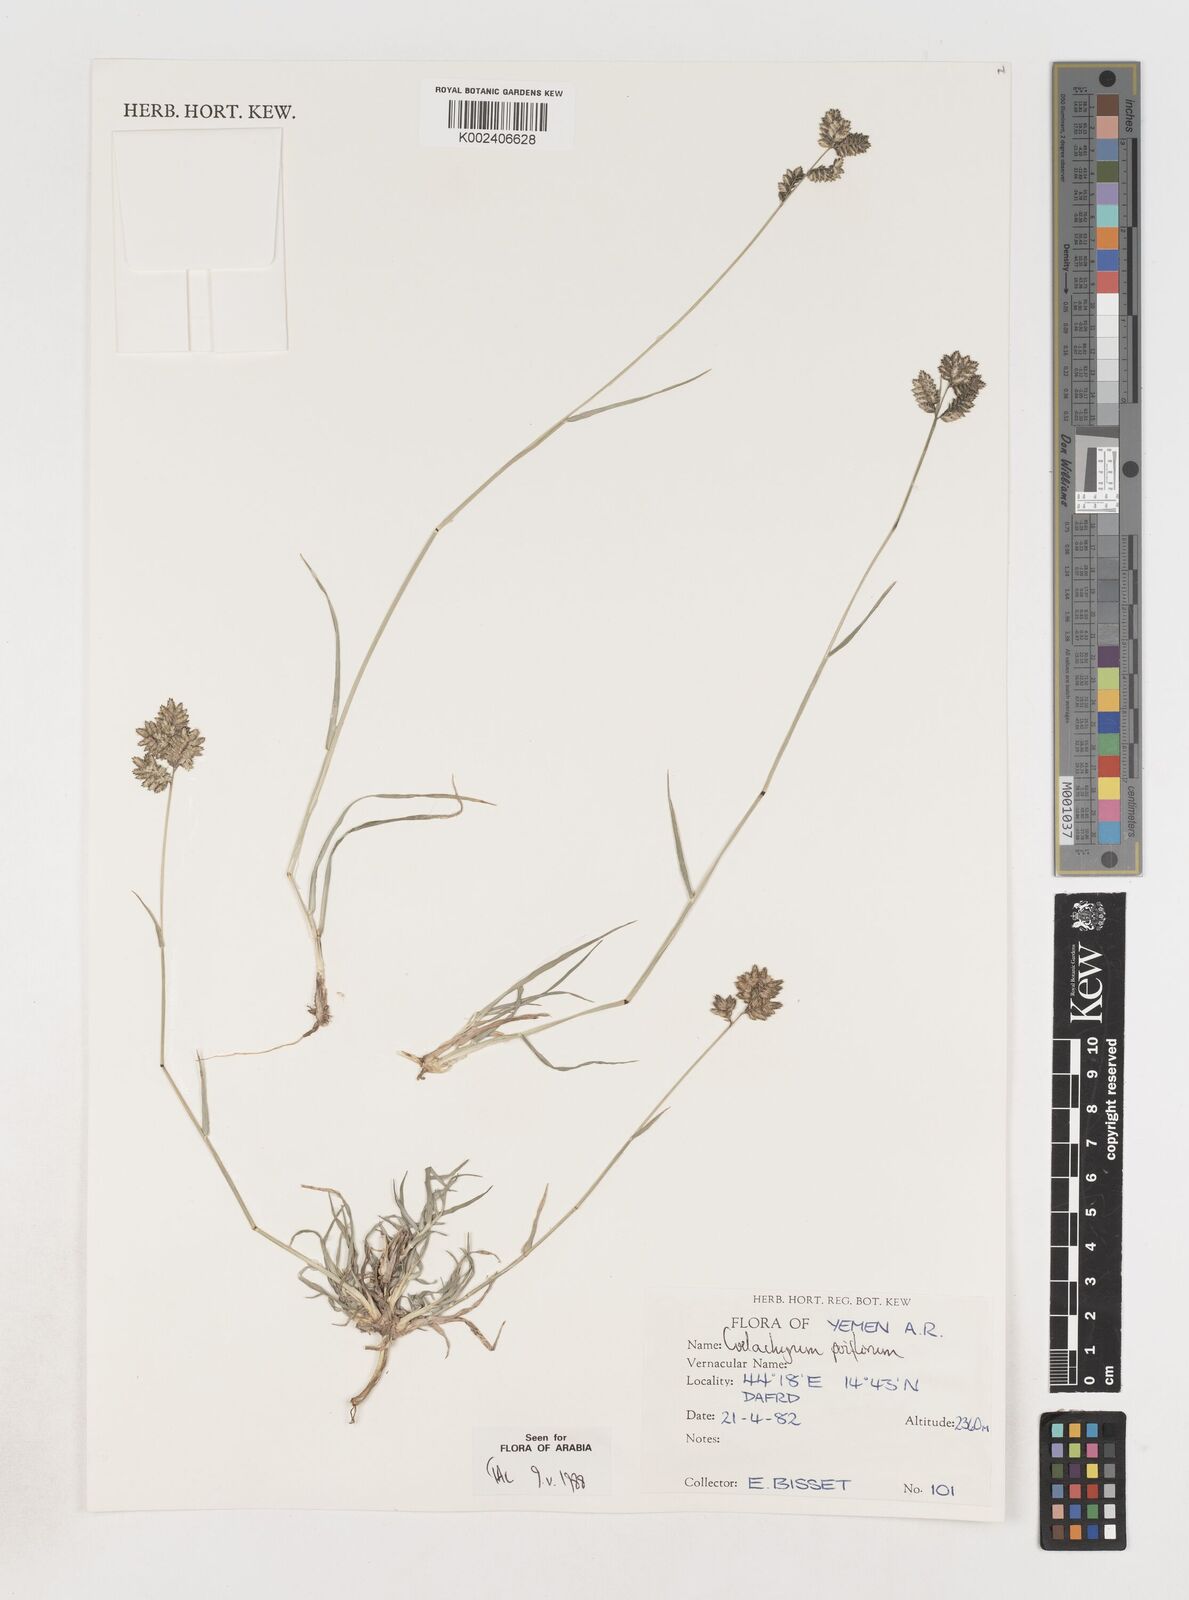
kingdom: Plantae
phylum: Tracheophyta
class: Liliopsida
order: Poales
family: Poaceae
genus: Coelachyrum
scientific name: Coelachyrum poiflorum
